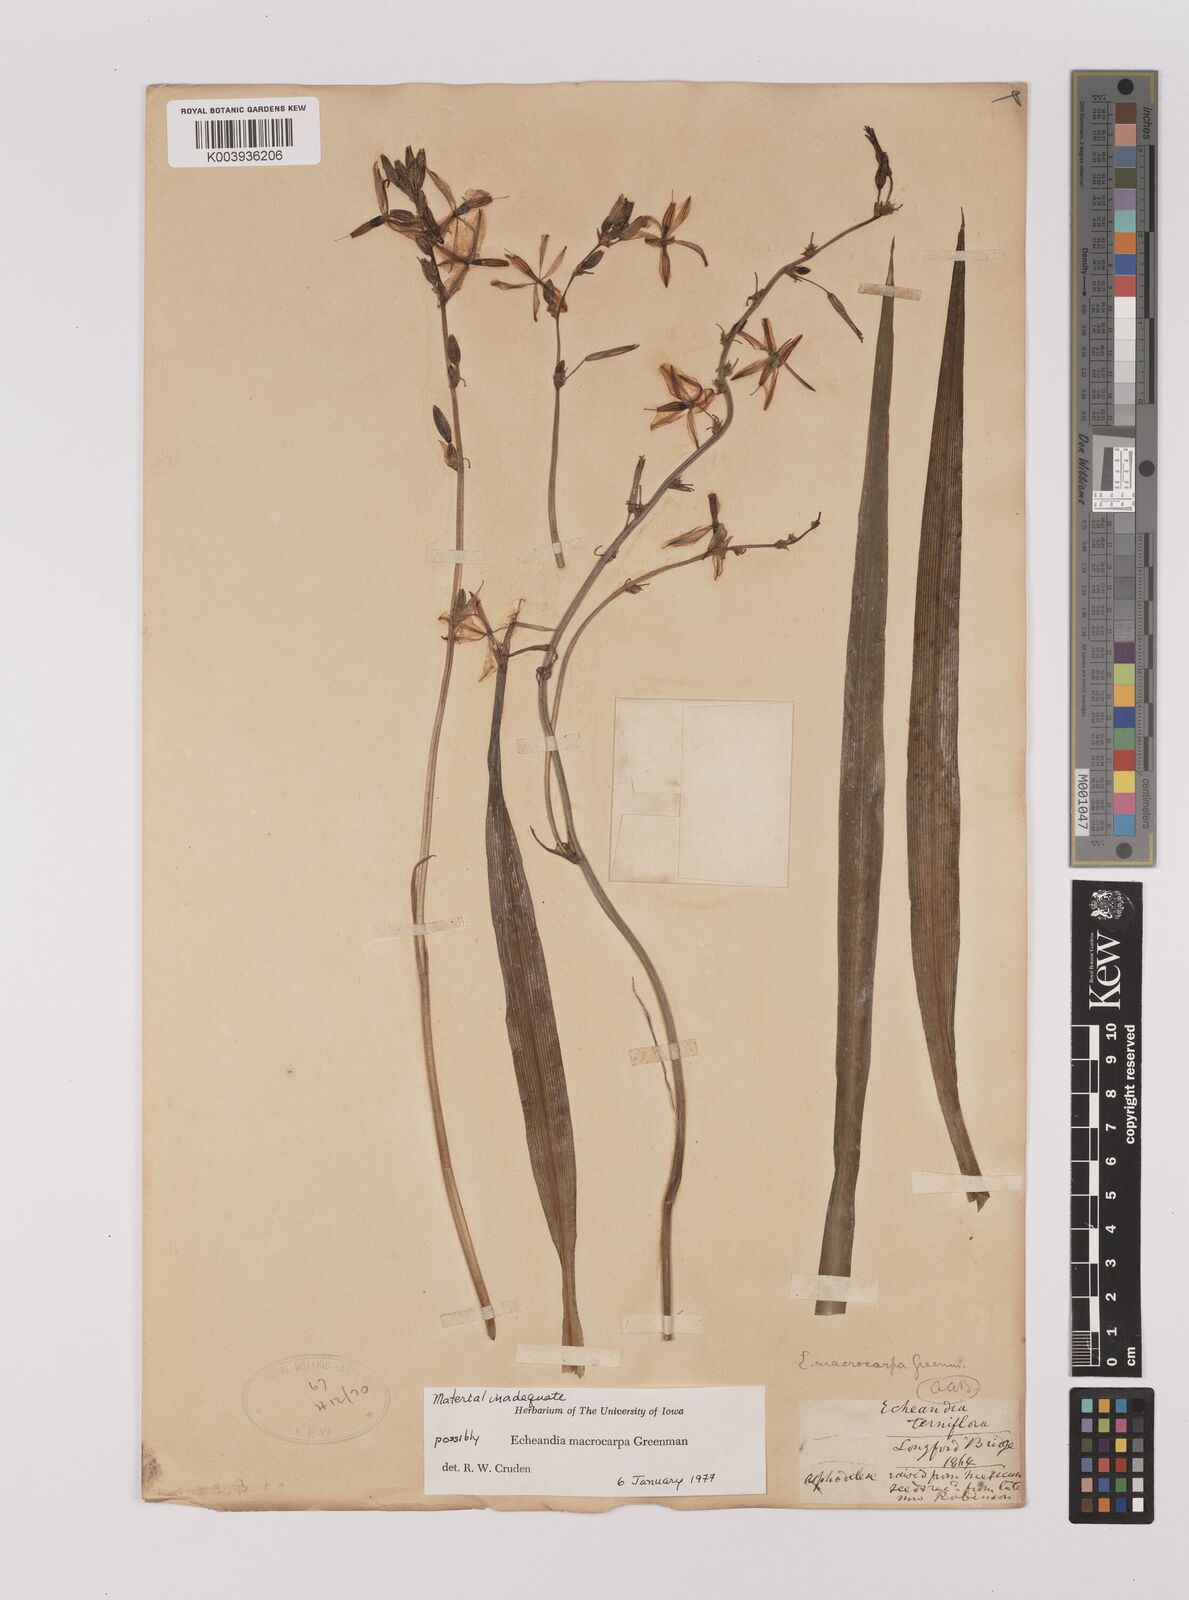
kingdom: Plantae
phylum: Tracheophyta
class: Liliopsida
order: Asparagales
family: Asparagaceae
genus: Echeandia
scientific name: Echeandia reflexa
